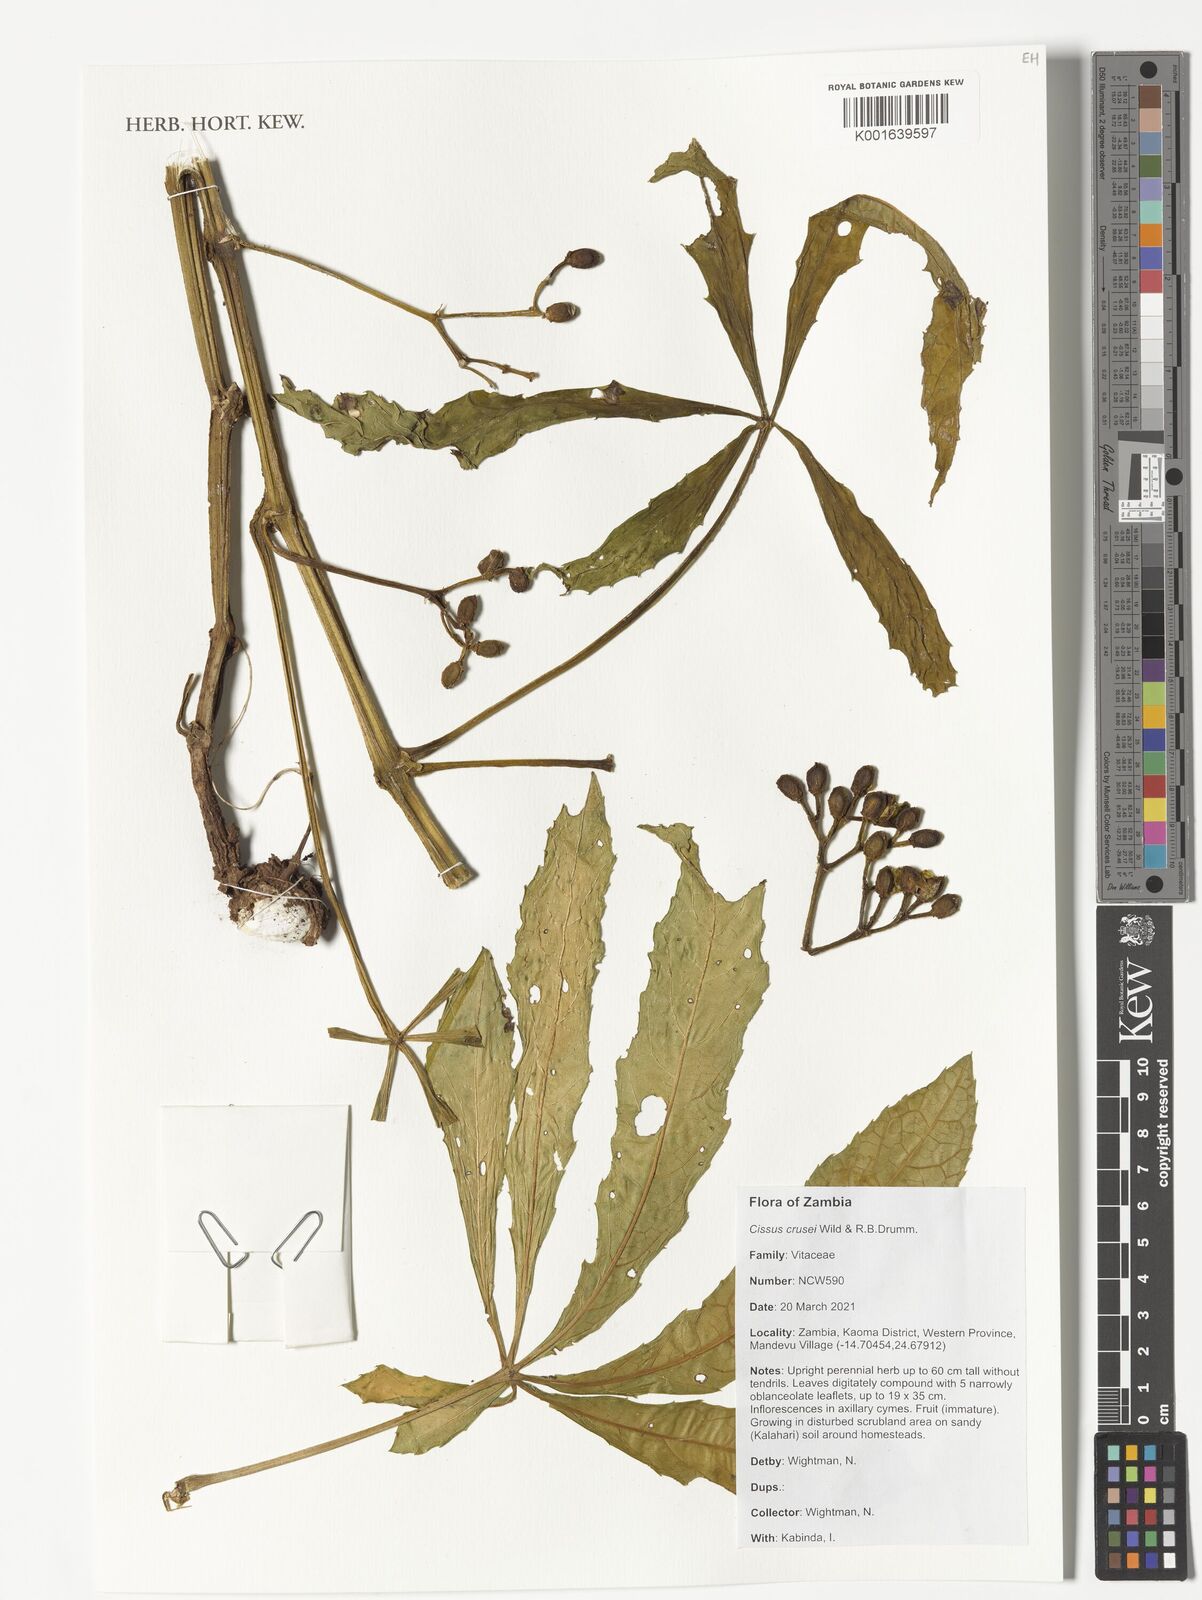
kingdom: Plantae
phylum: Tracheophyta
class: Magnoliopsida
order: Vitales
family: Vitaceae
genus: Cissus
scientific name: Cissus crusei
